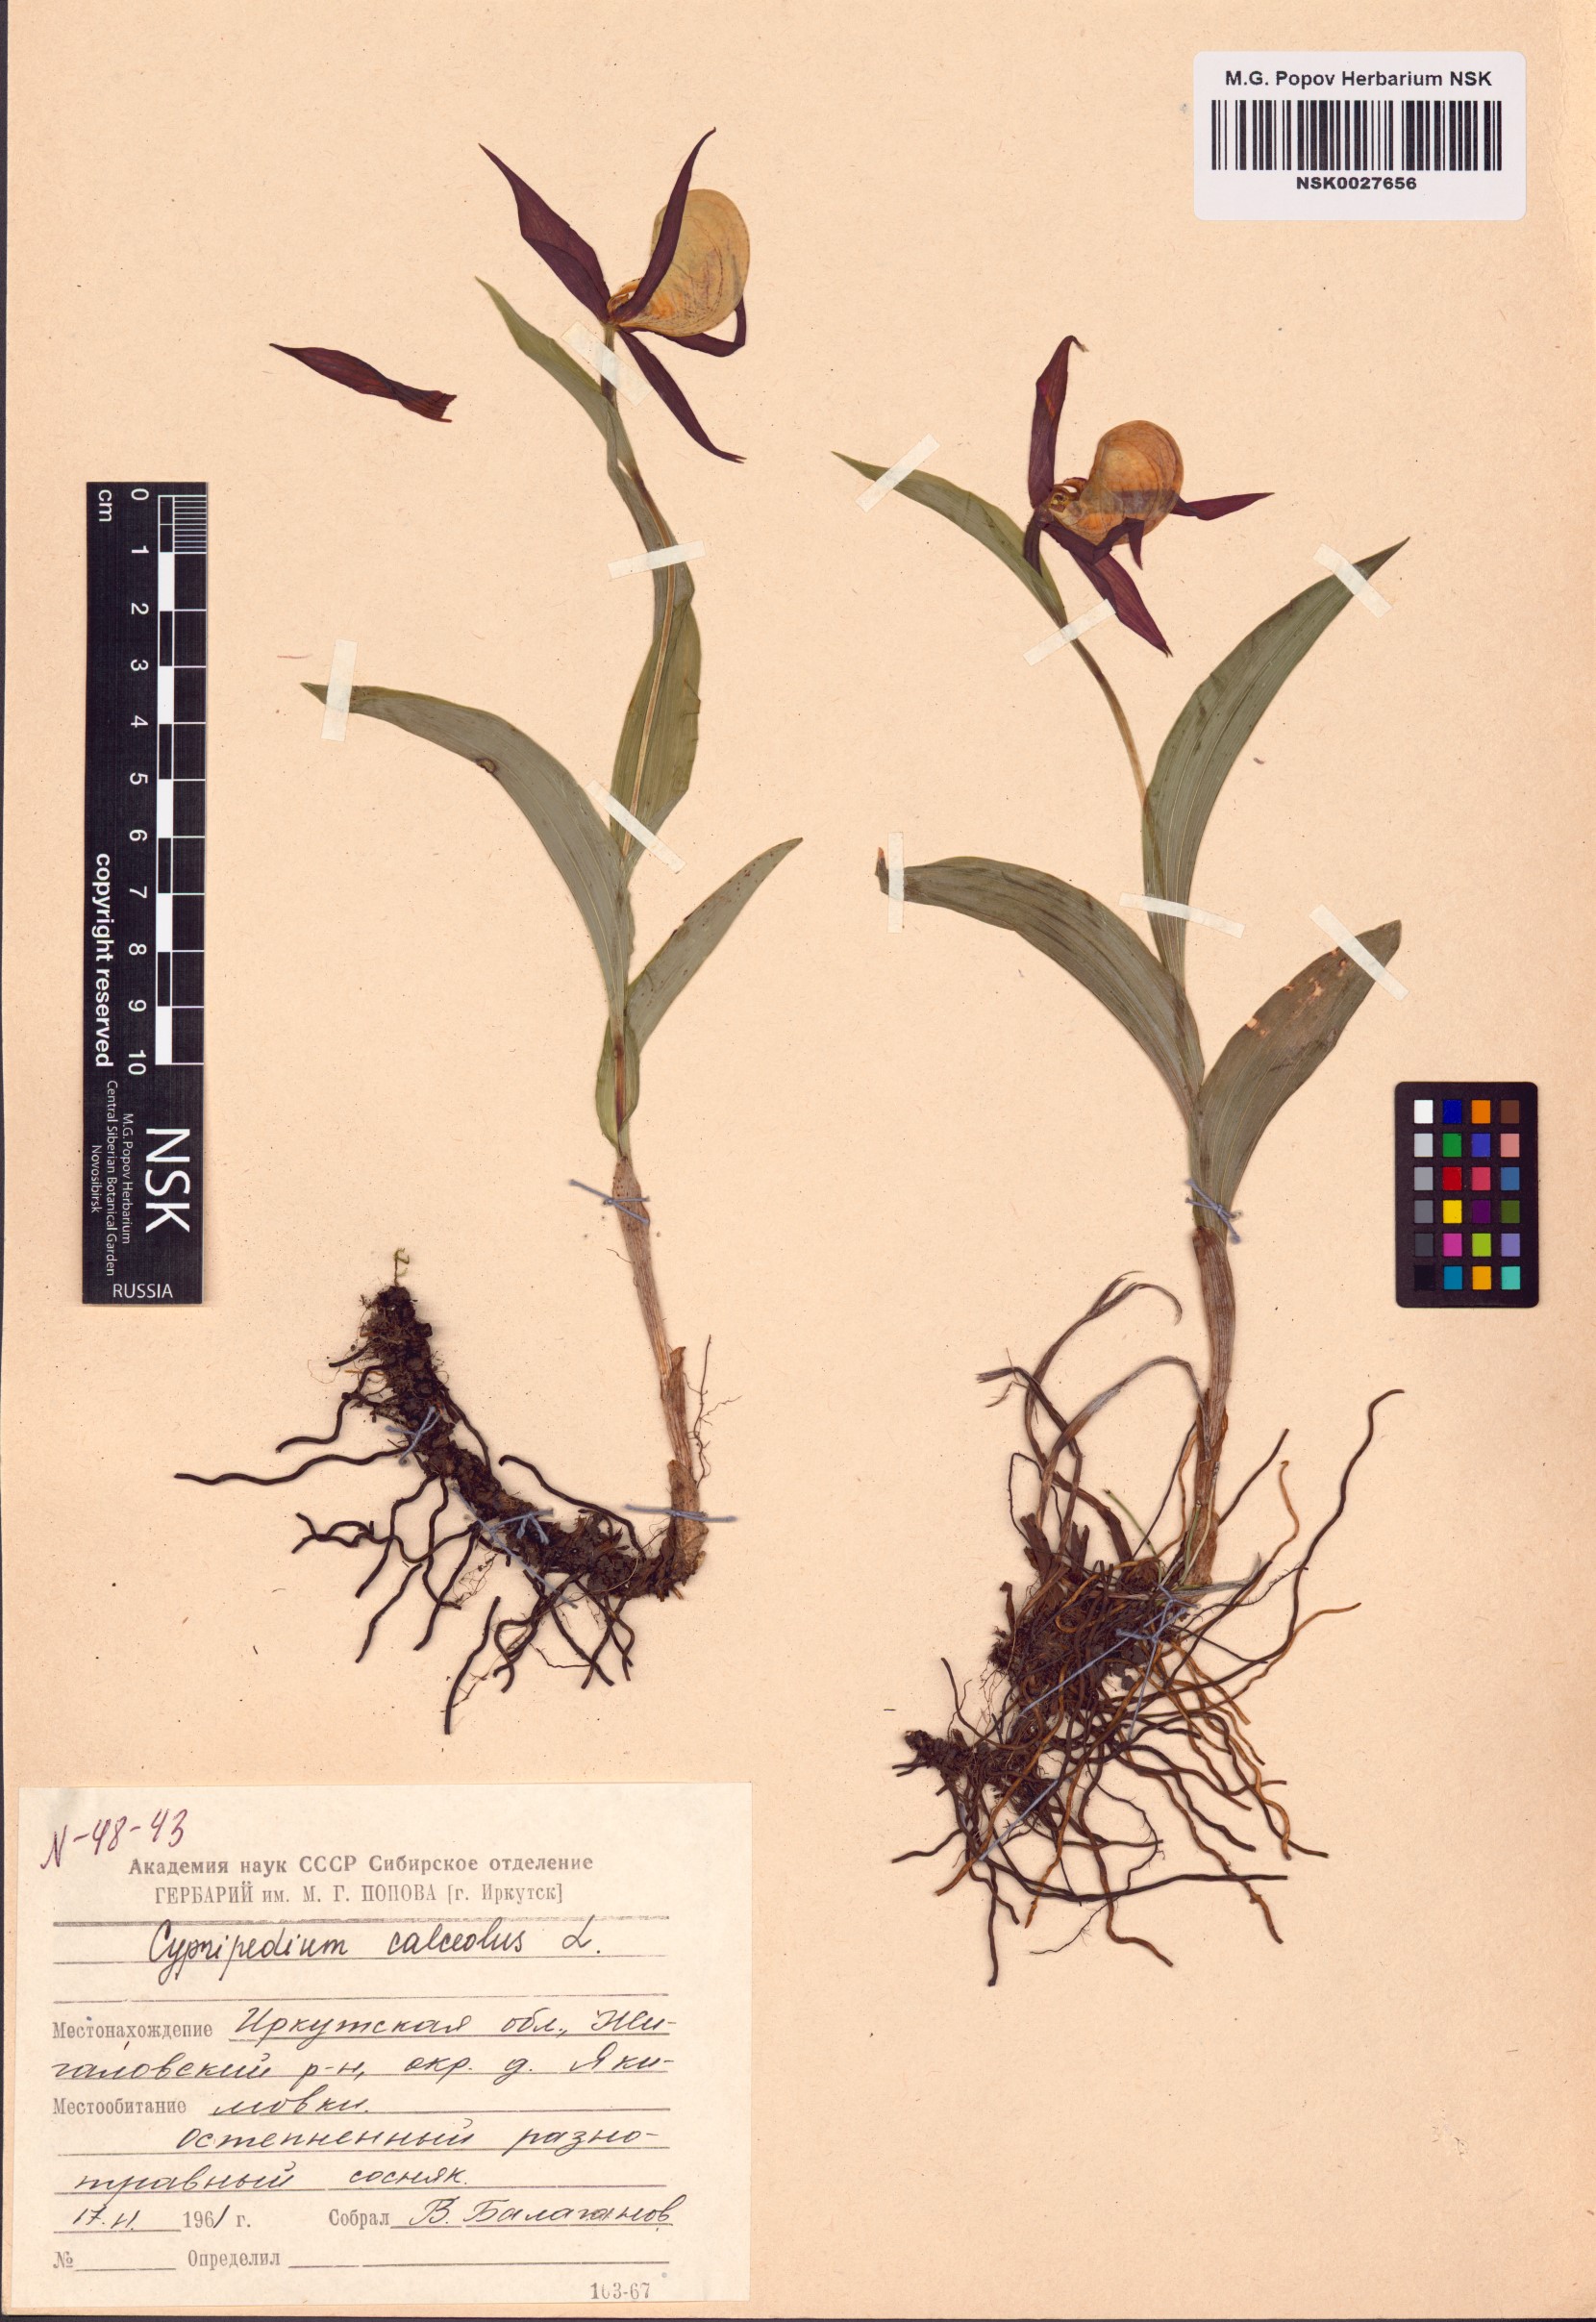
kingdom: Plantae
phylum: Tracheophyta
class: Liliopsida
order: Asparagales
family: Orchidaceae
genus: Cypripedium
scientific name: Cypripedium calceolus
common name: Lady's-slipper
